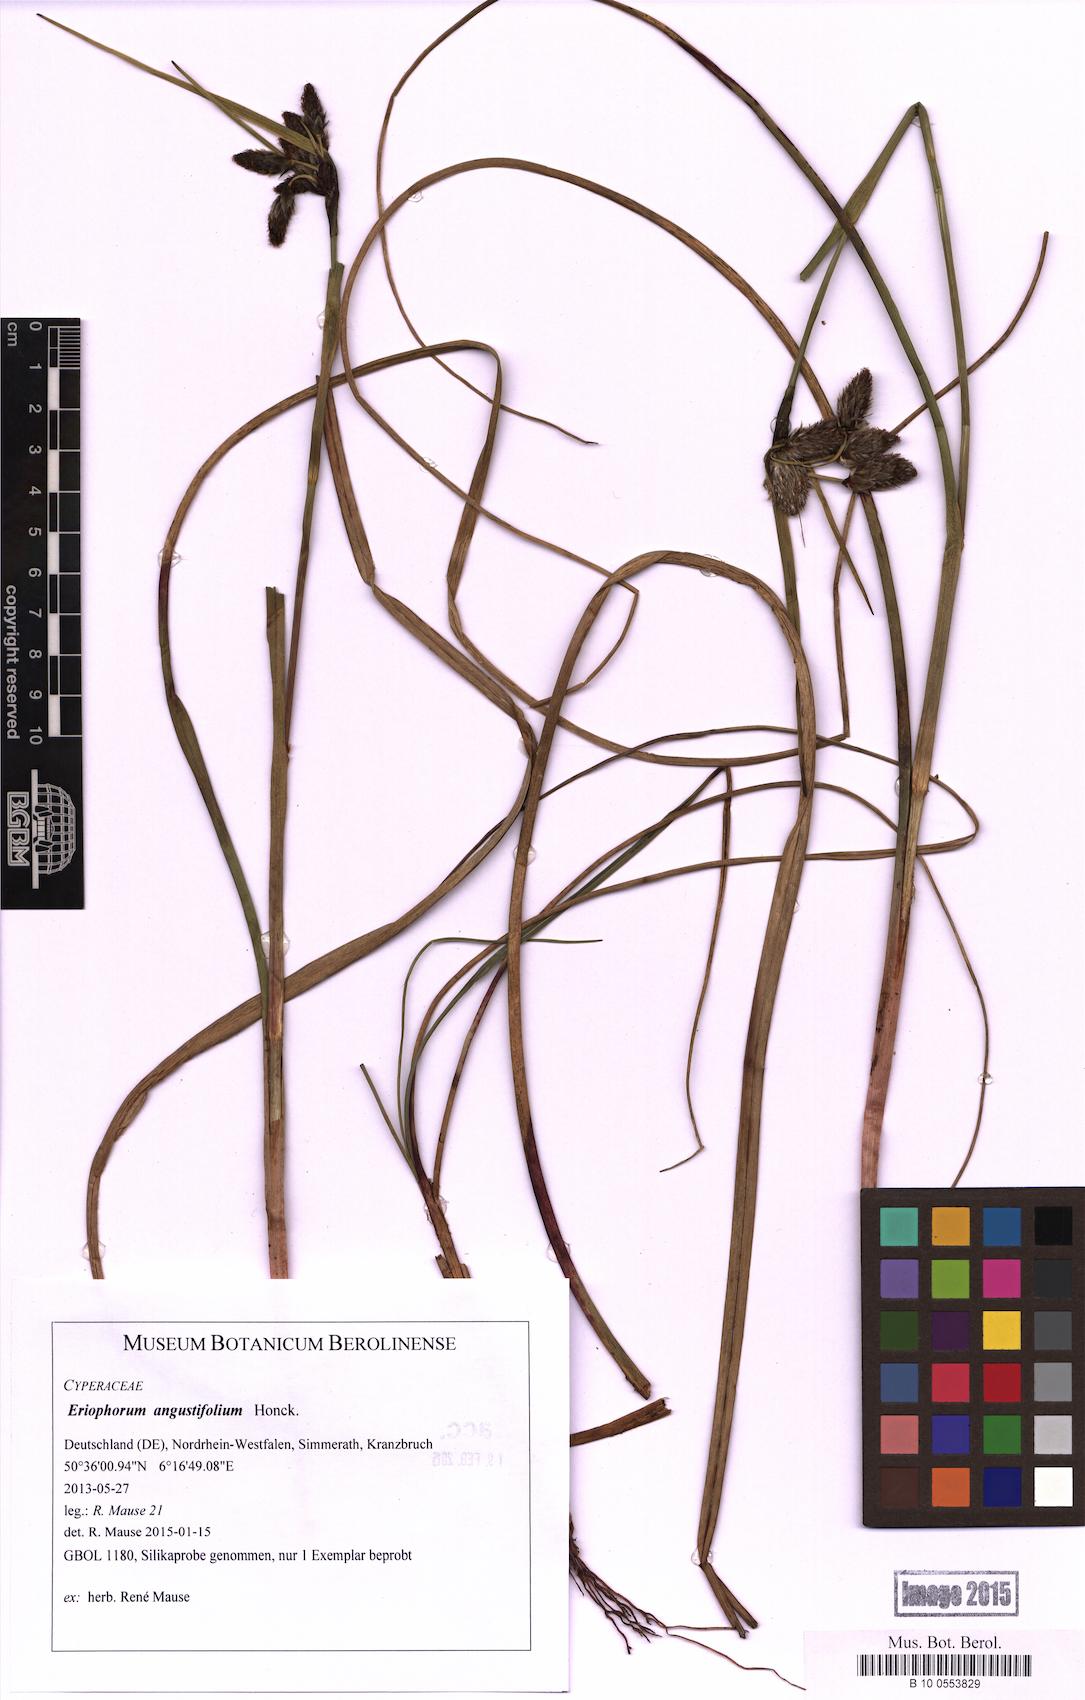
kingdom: Plantae
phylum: Tracheophyta
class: Liliopsida
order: Poales
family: Cyperaceae
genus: Eriophorum
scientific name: Eriophorum angustifolium
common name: Common cottongrass
